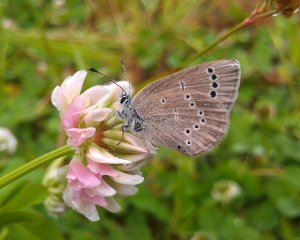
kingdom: Animalia
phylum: Arthropoda
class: Insecta
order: Lepidoptera
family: Lycaenidae
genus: Glaucopsyche
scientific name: Glaucopsyche lygdamus
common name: Silvery Blue
